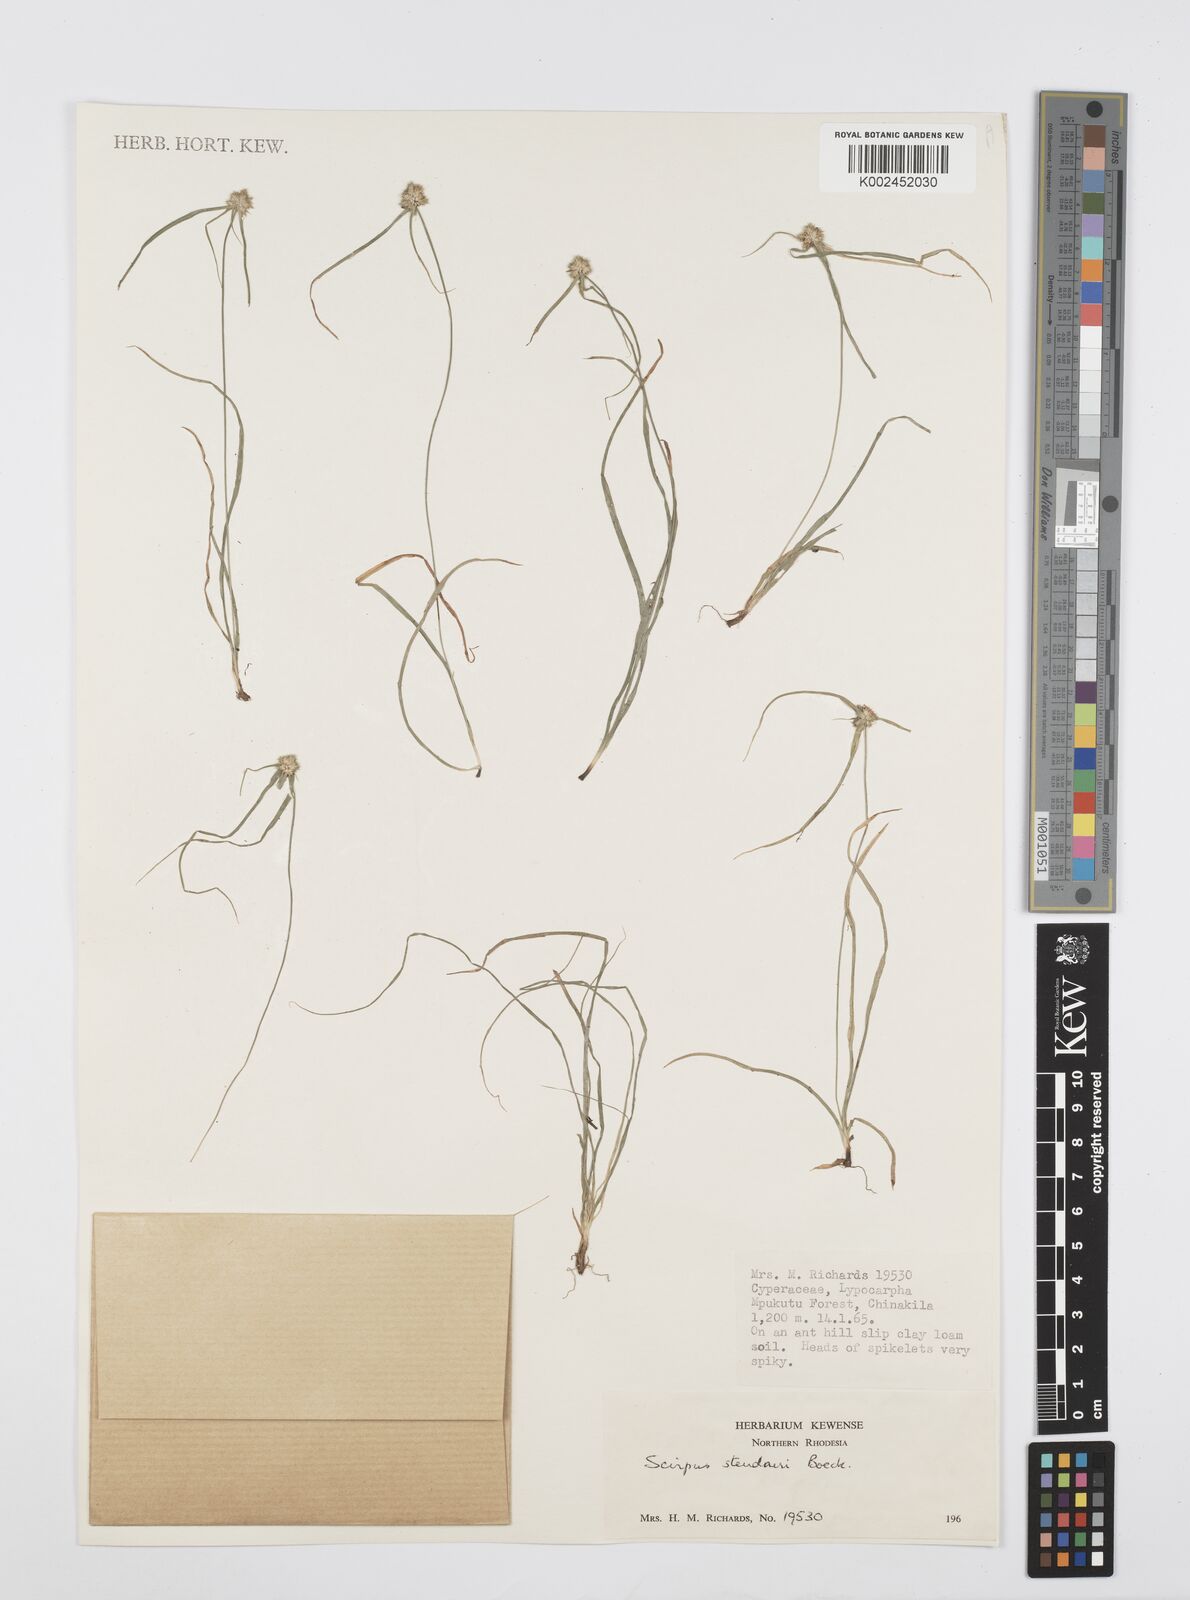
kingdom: Plantae
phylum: Tracheophyta
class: Liliopsida
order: Poales
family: Cyperaceae
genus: Cyperus
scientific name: Cyperus bulbosus
